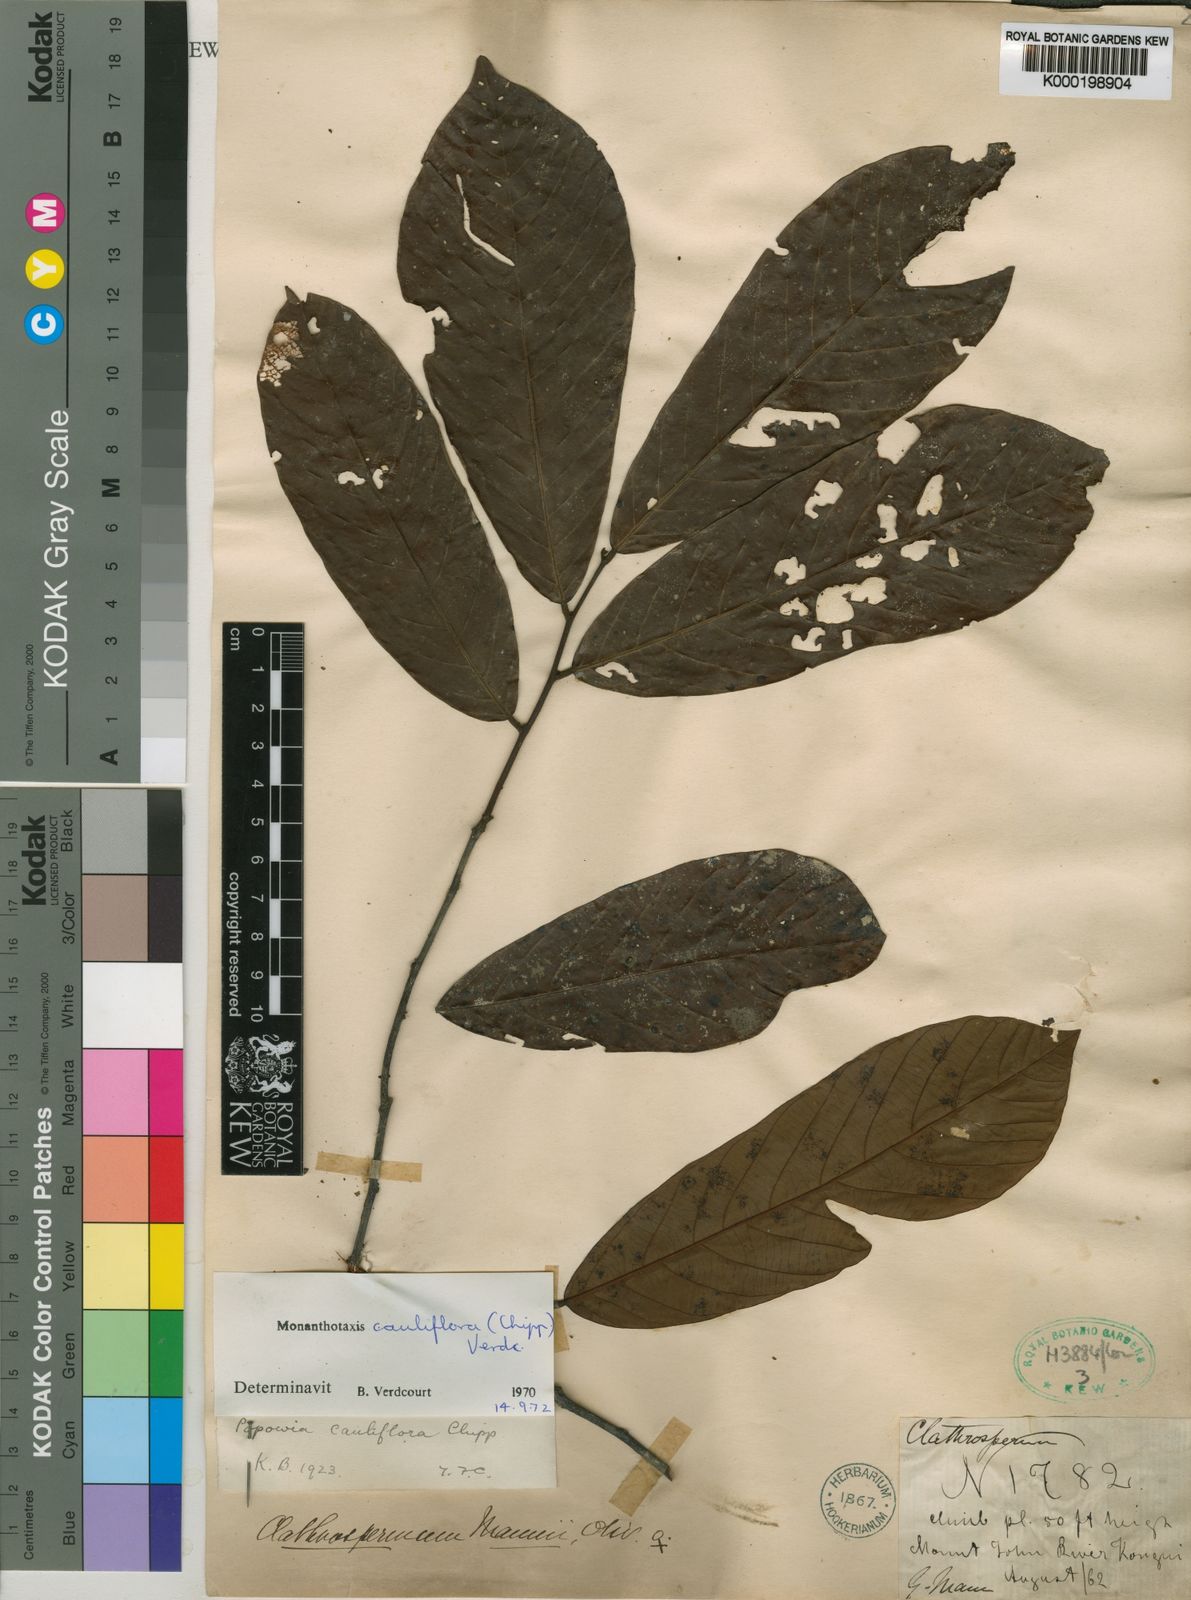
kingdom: Plantae
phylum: Tracheophyta
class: Magnoliopsida
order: Magnoliales
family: Annonaceae
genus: Monanthotaxis
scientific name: Monanthotaxis cauliflora
